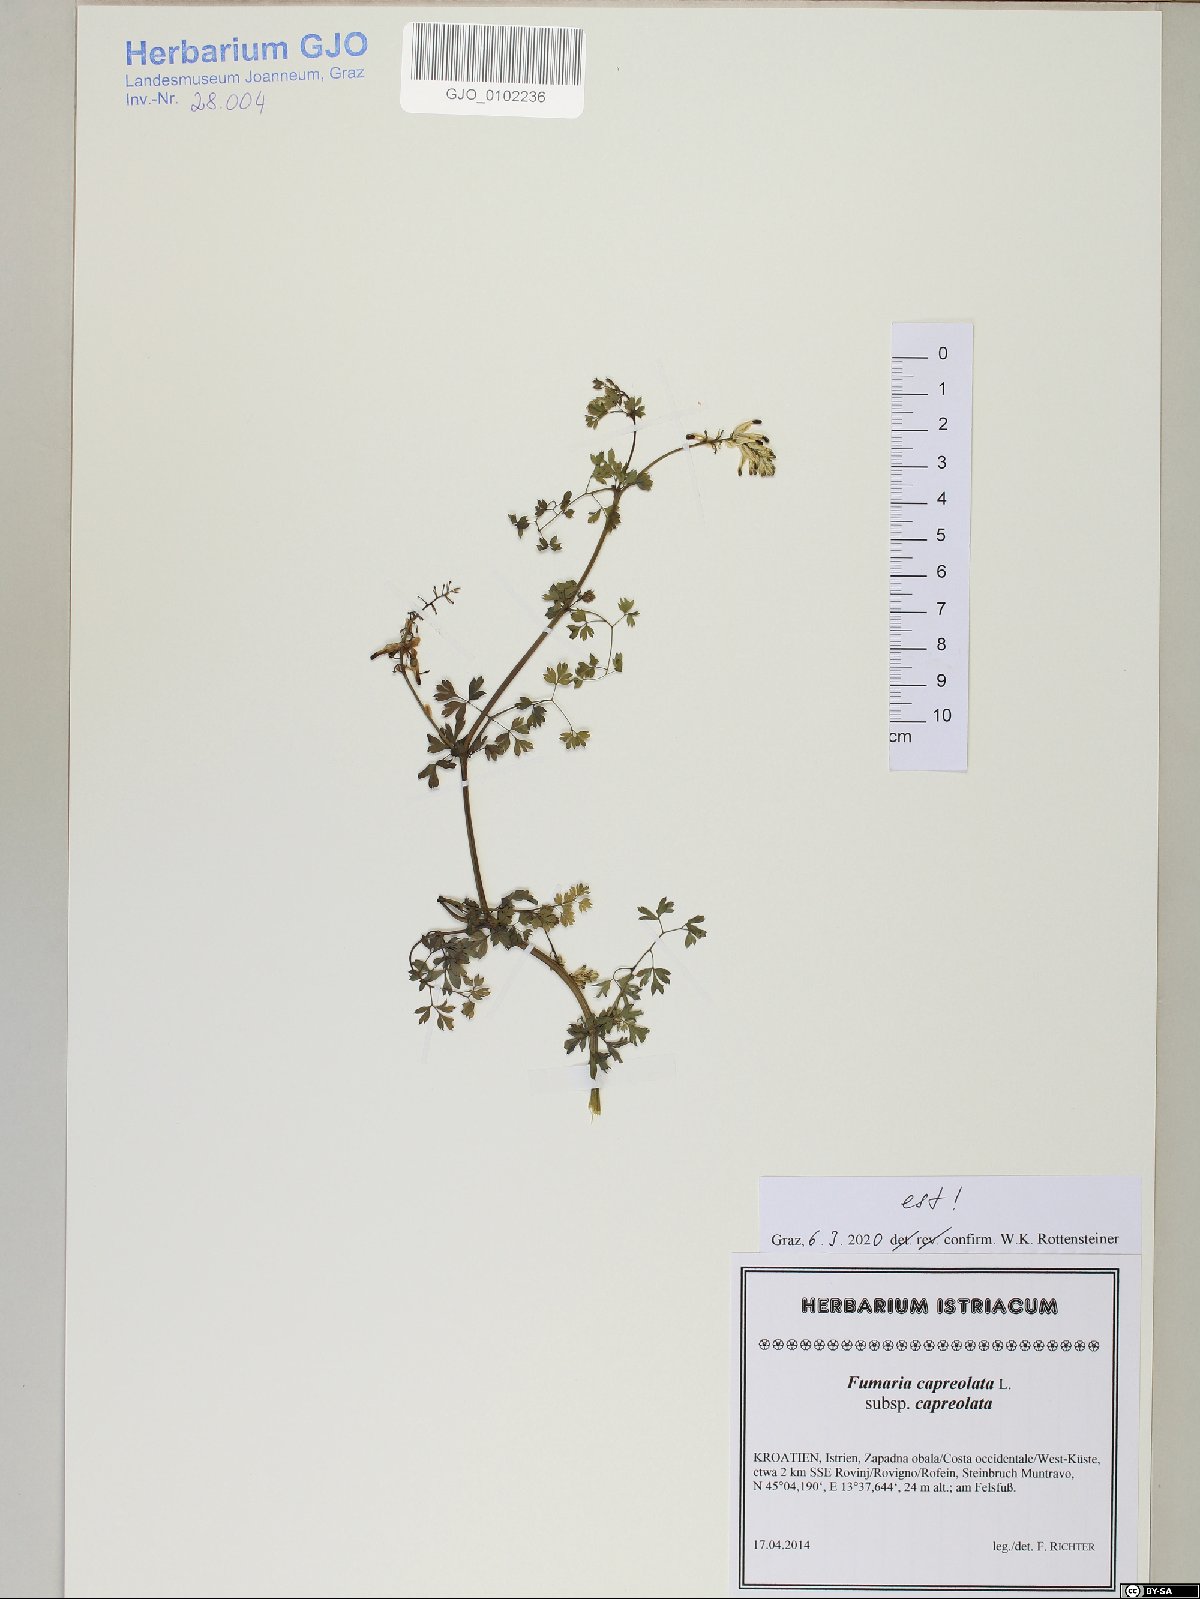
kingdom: Plantae
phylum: Tracheophyta
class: Magnoliopsida
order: Ranunculales
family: Papaveraceae
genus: Fumaria
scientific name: Fumaria capreolata
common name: White ramping-fumitory
